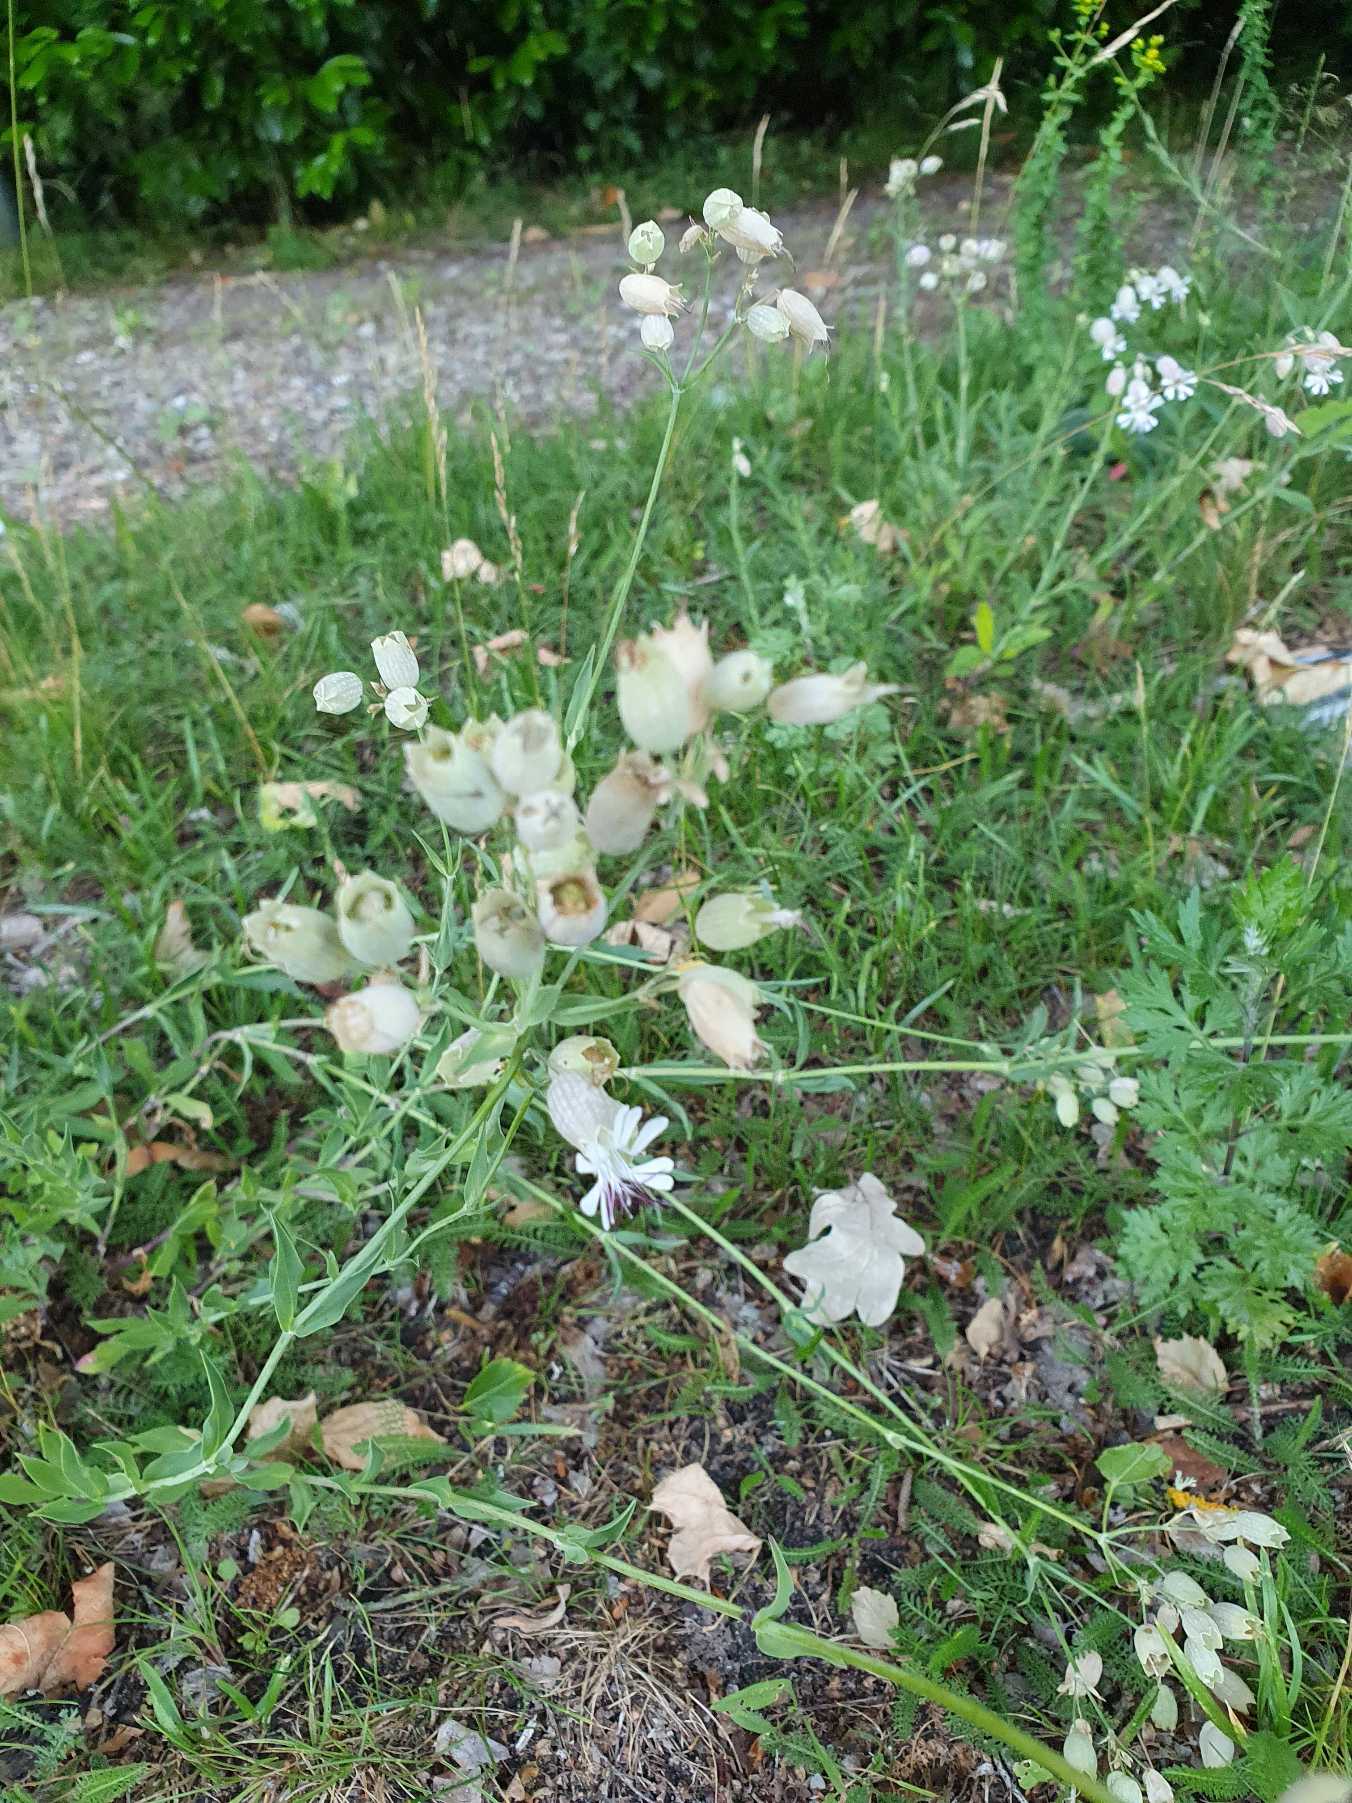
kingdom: Plantae
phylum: Tracheophyta
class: Magnoliopsida
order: Caryophyllales
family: Caryophyllaceae
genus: Silene
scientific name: Silene vulgaris
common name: Blæresmælde
